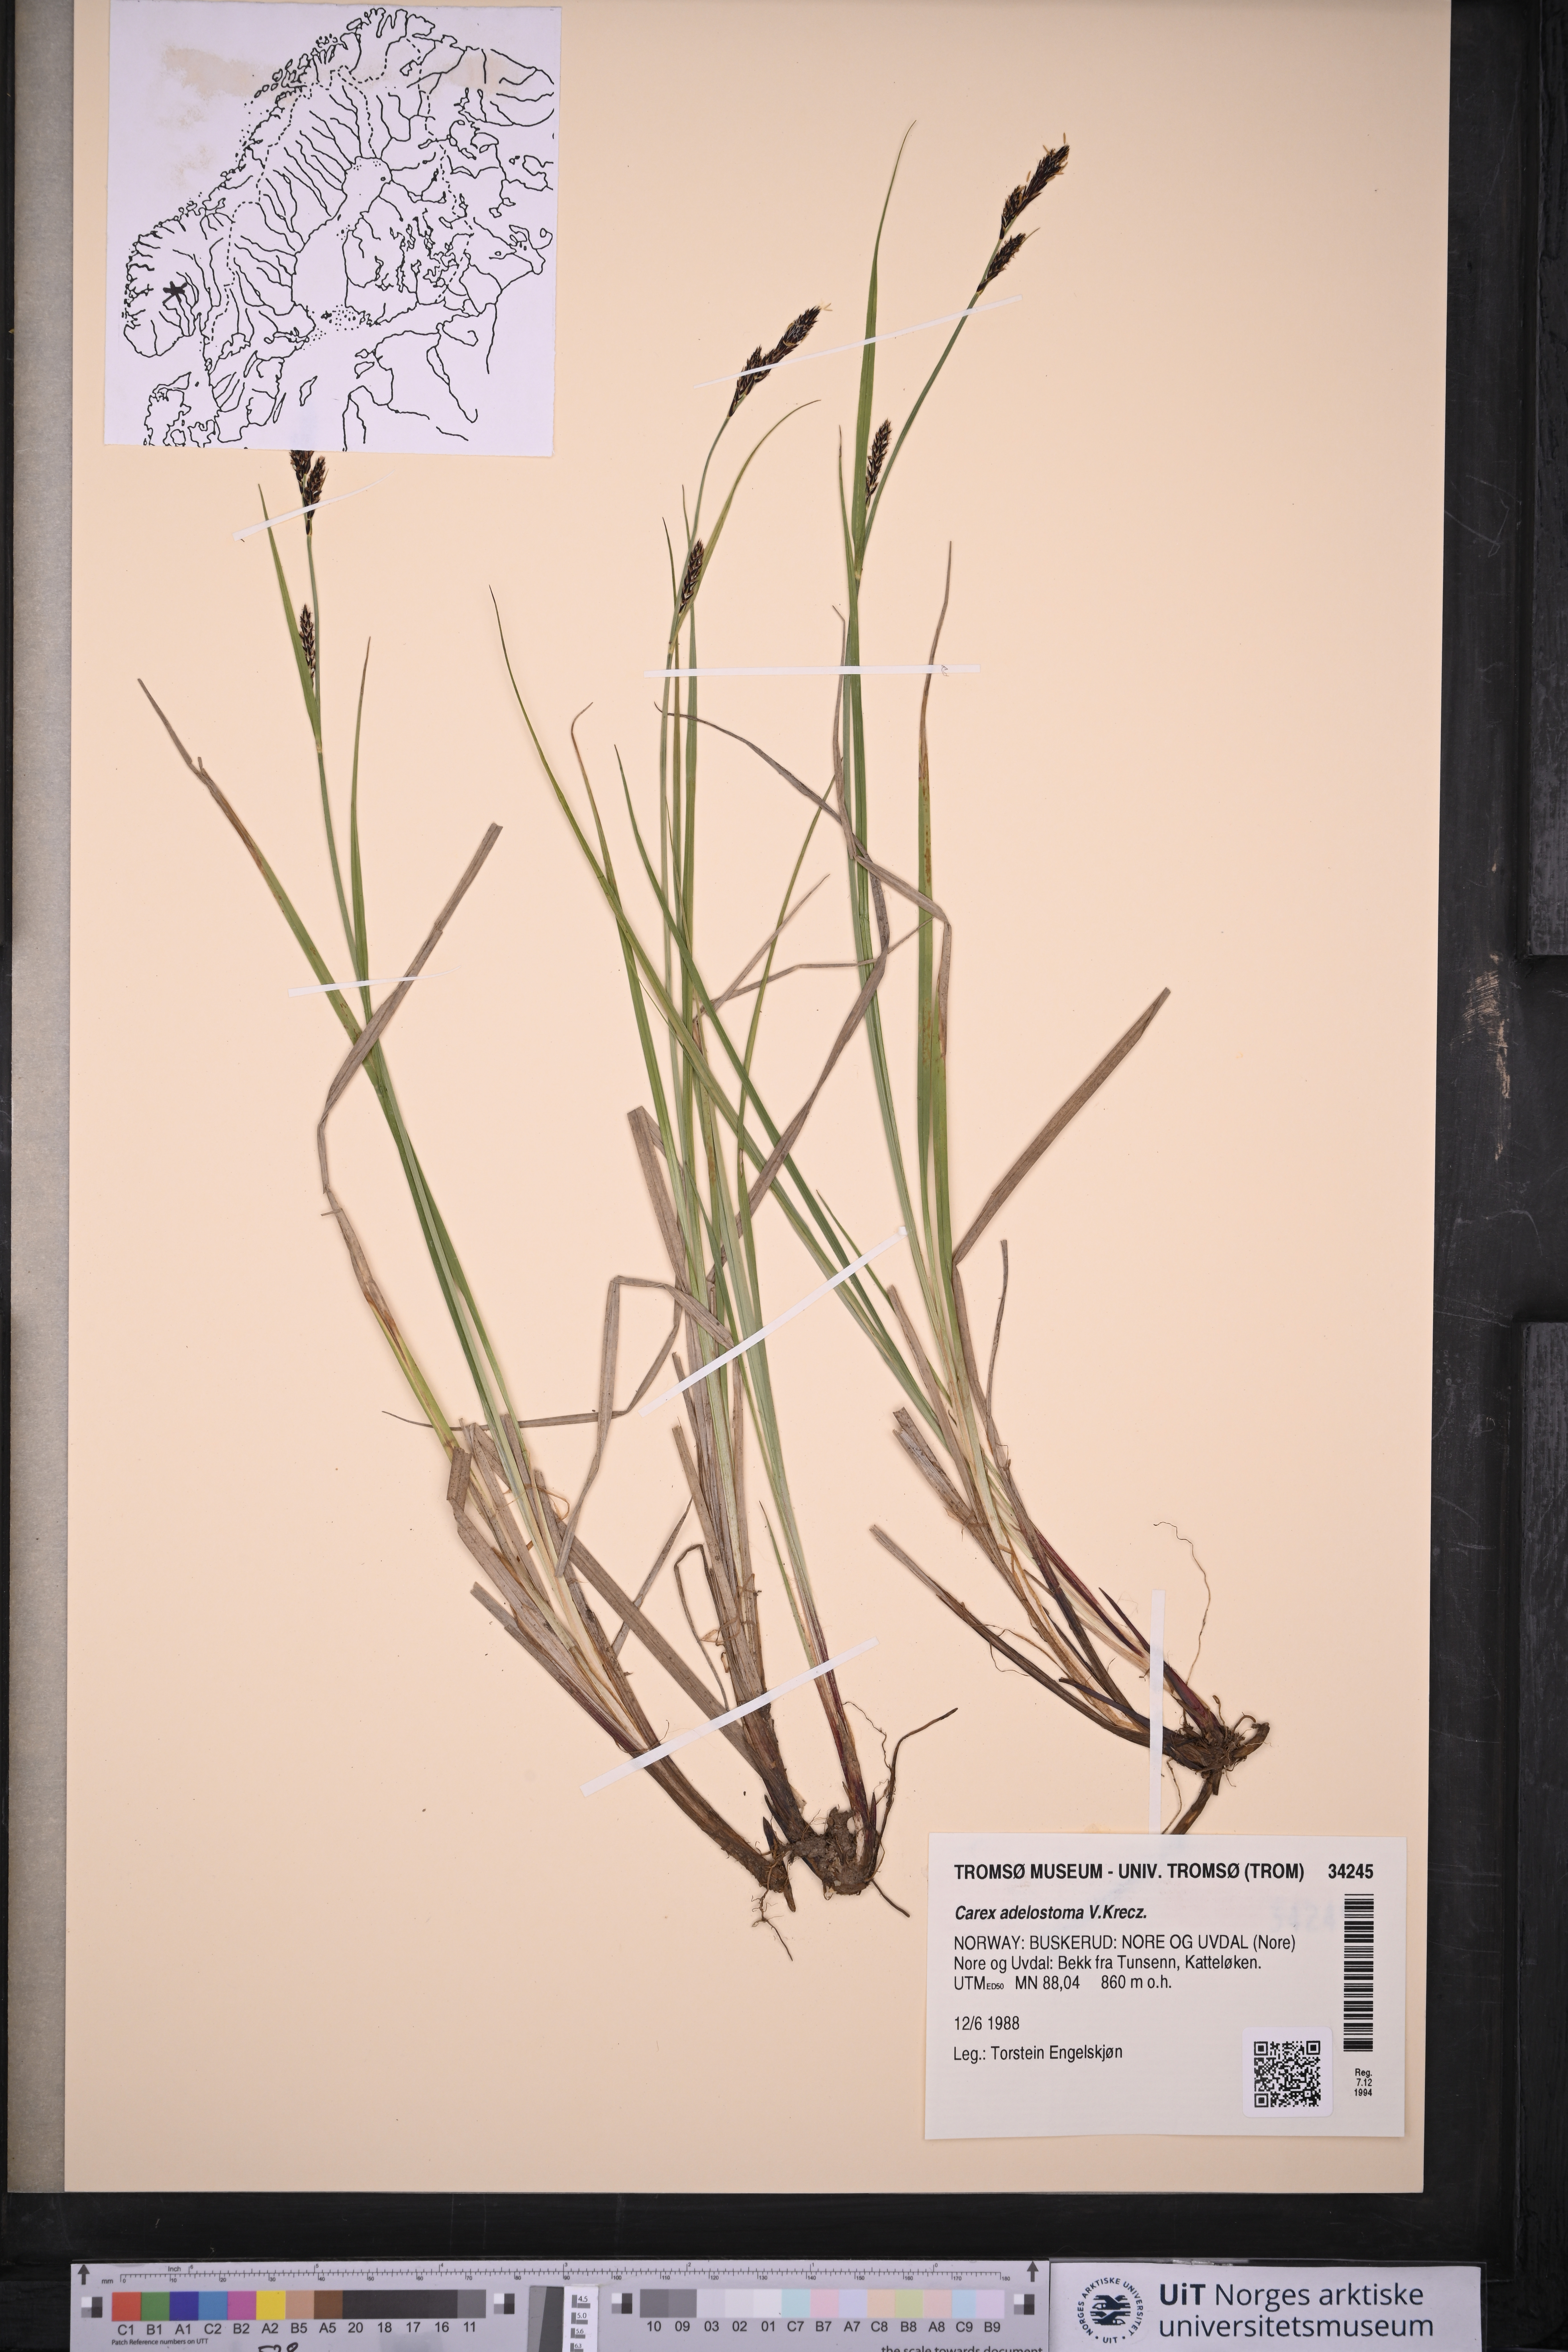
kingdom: Plantae
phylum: Tracheophyta
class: Liliopsida
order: Poales
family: Cyperaceae
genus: Carex
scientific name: Carex adelostoma
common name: Circumpolar sedge
